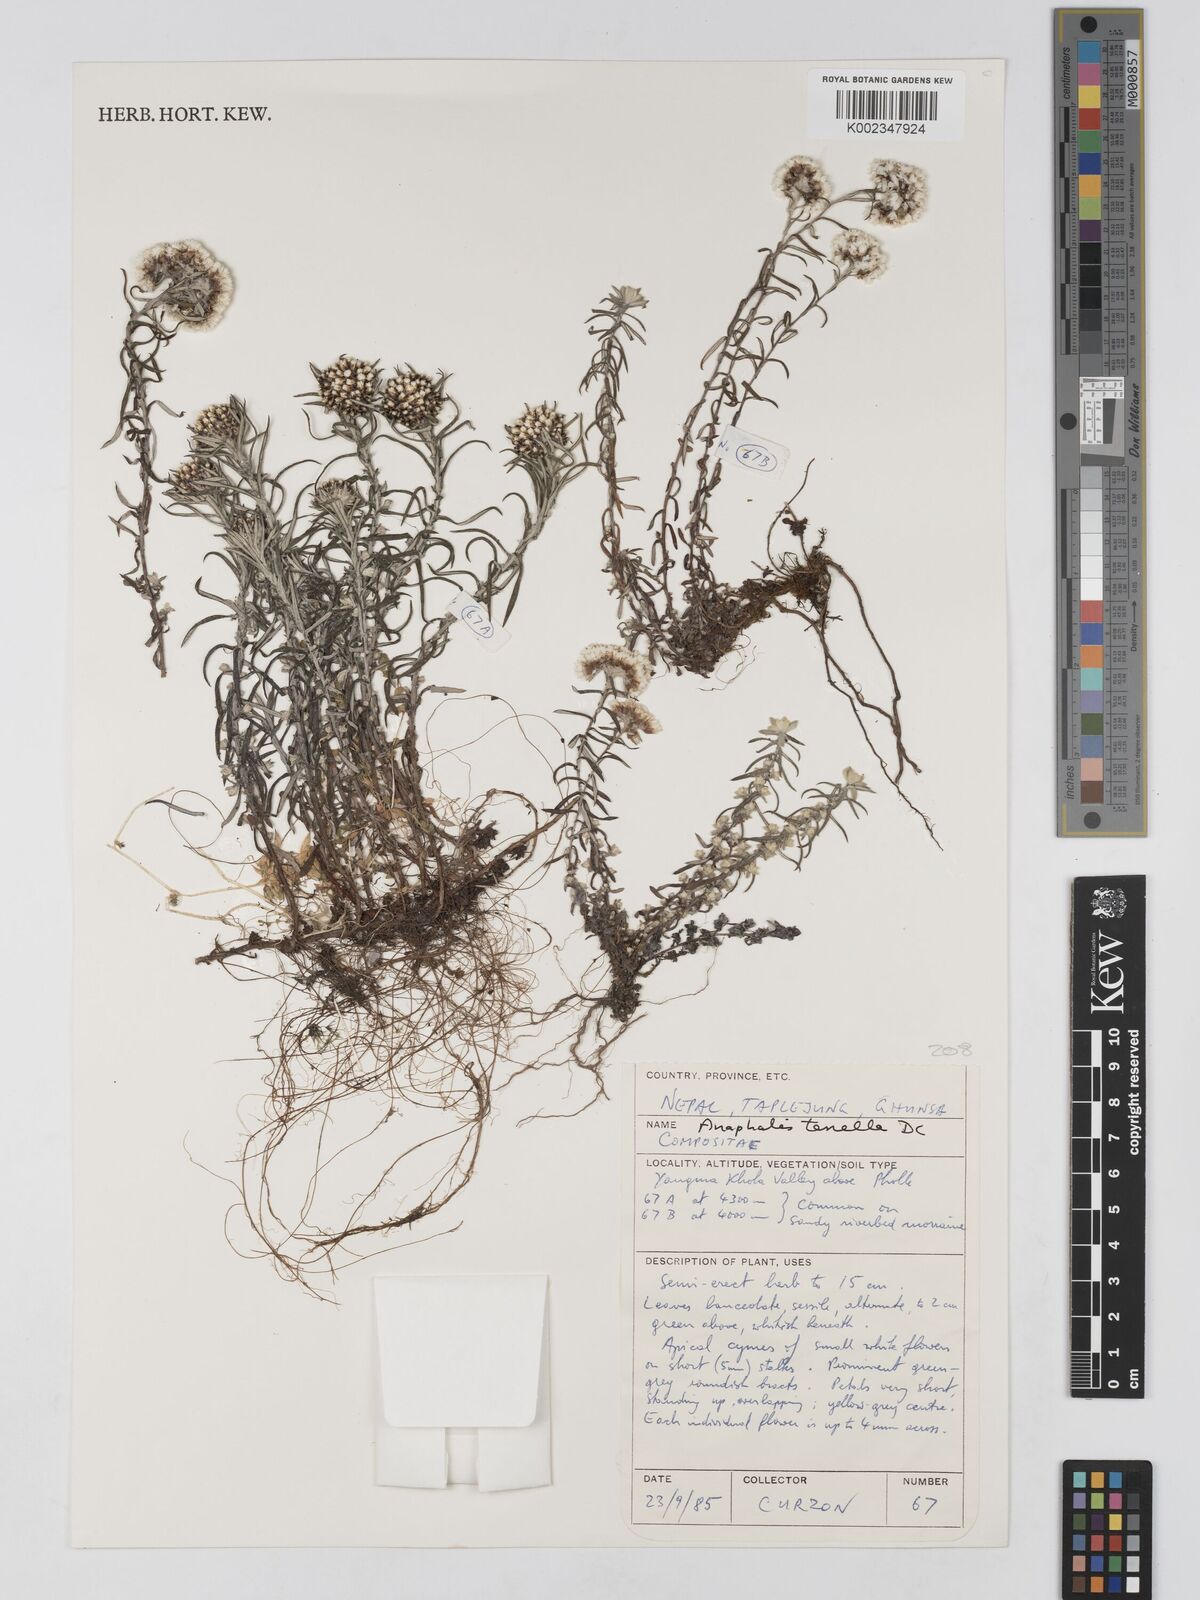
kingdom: Plantae
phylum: Tracheophyta
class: Magnoliopsida
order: Asterales
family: Asteraceae
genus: Anaphalis
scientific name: Anaphalis tenella
